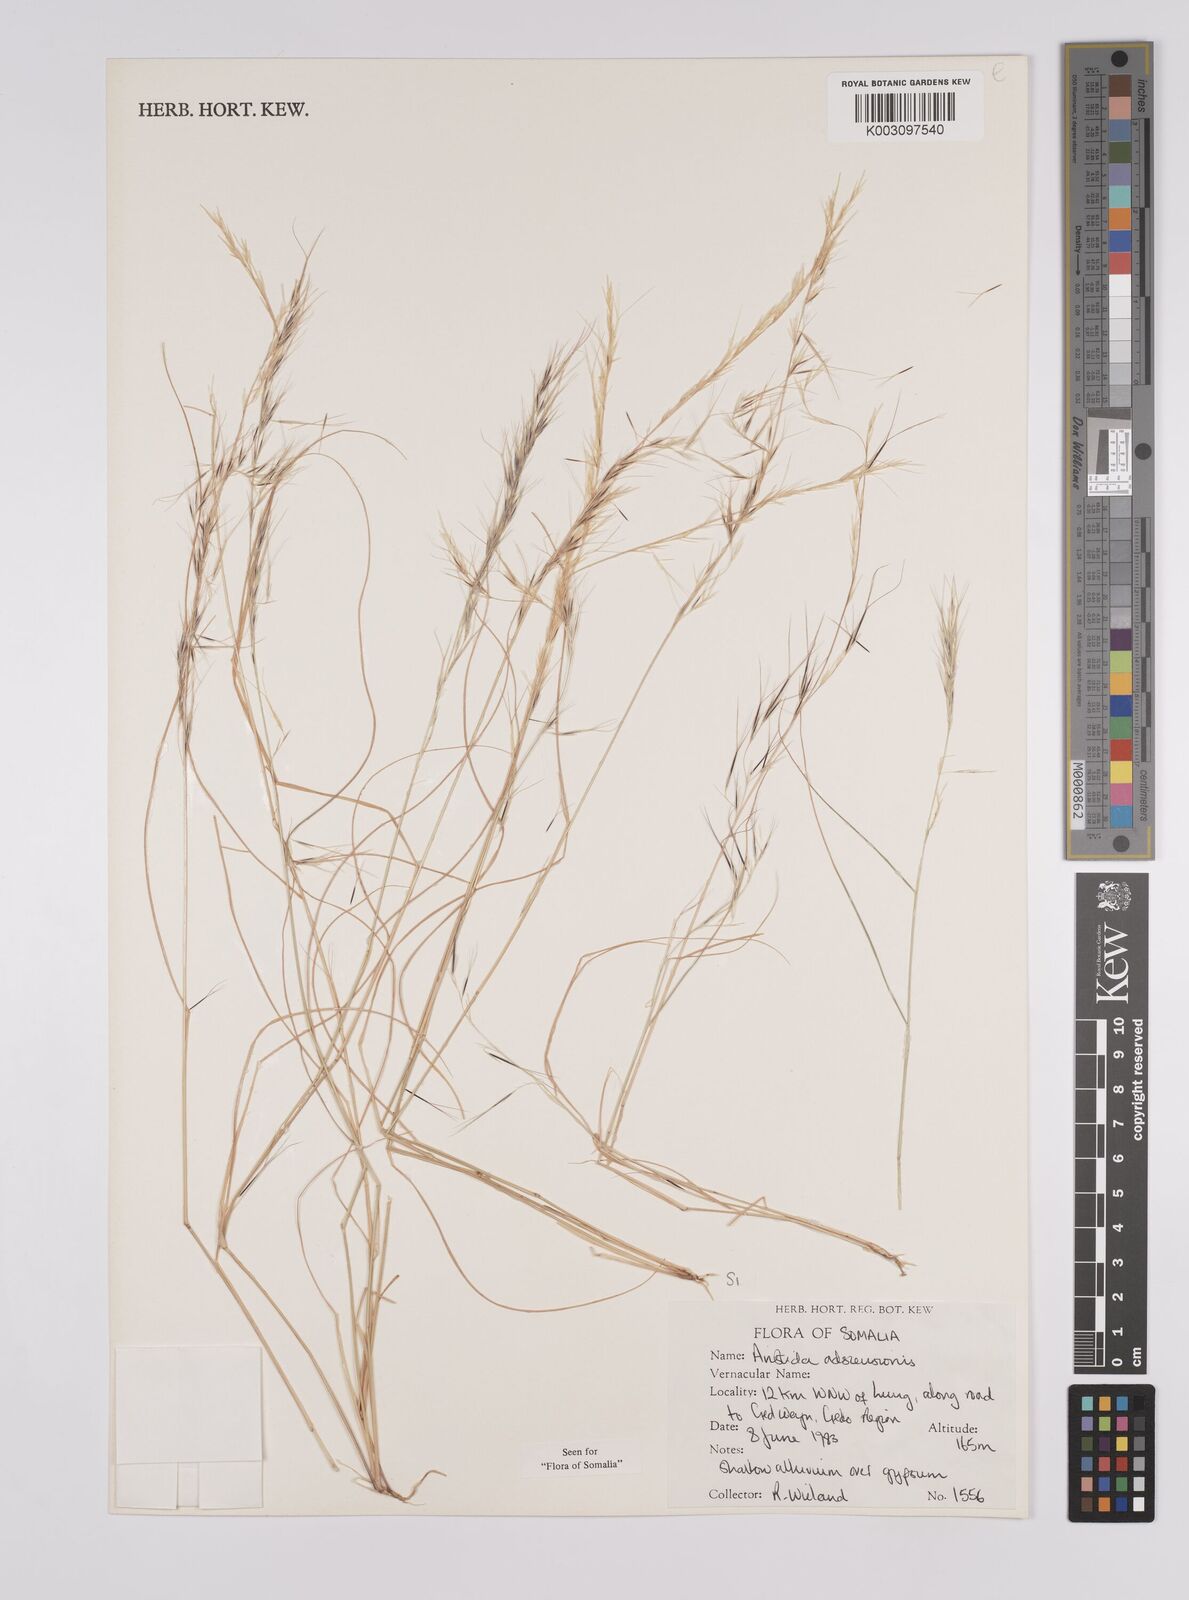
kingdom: Plantae
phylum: Tracheophyta
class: Liliopsida
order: Poales
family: Poaceae
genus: Aristida
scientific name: Aristida laevis
